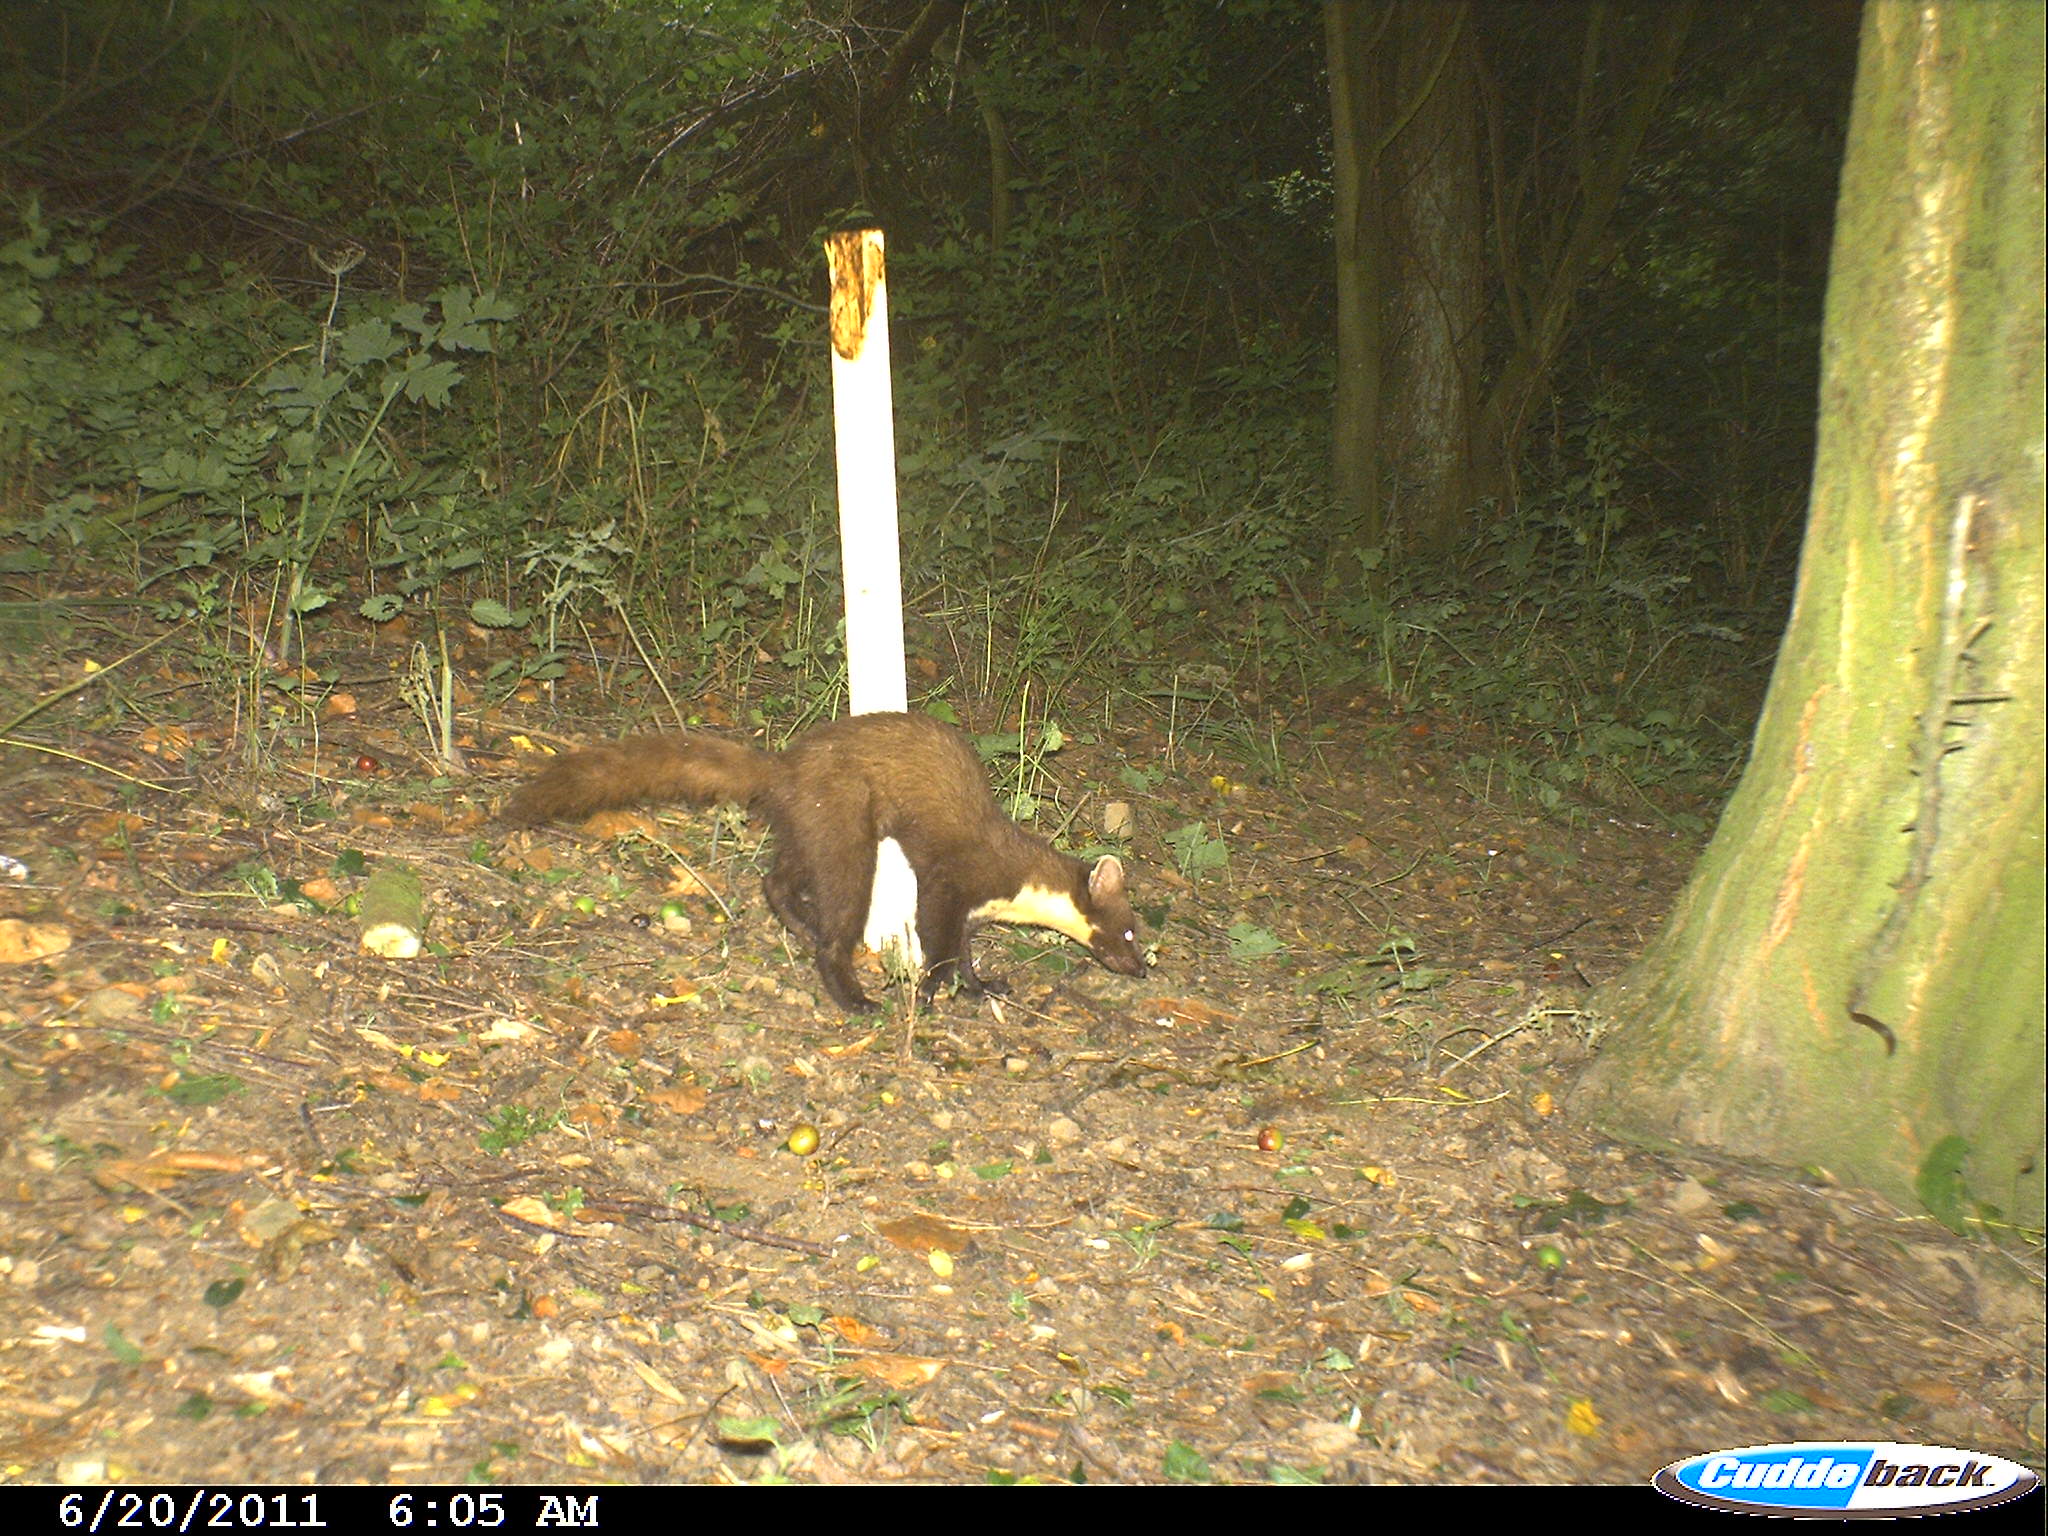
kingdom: Animalia
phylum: Chordata
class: Mammalia
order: Carnivora
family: Mustelidae
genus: Martes
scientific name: Martes martes
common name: European pine marten
